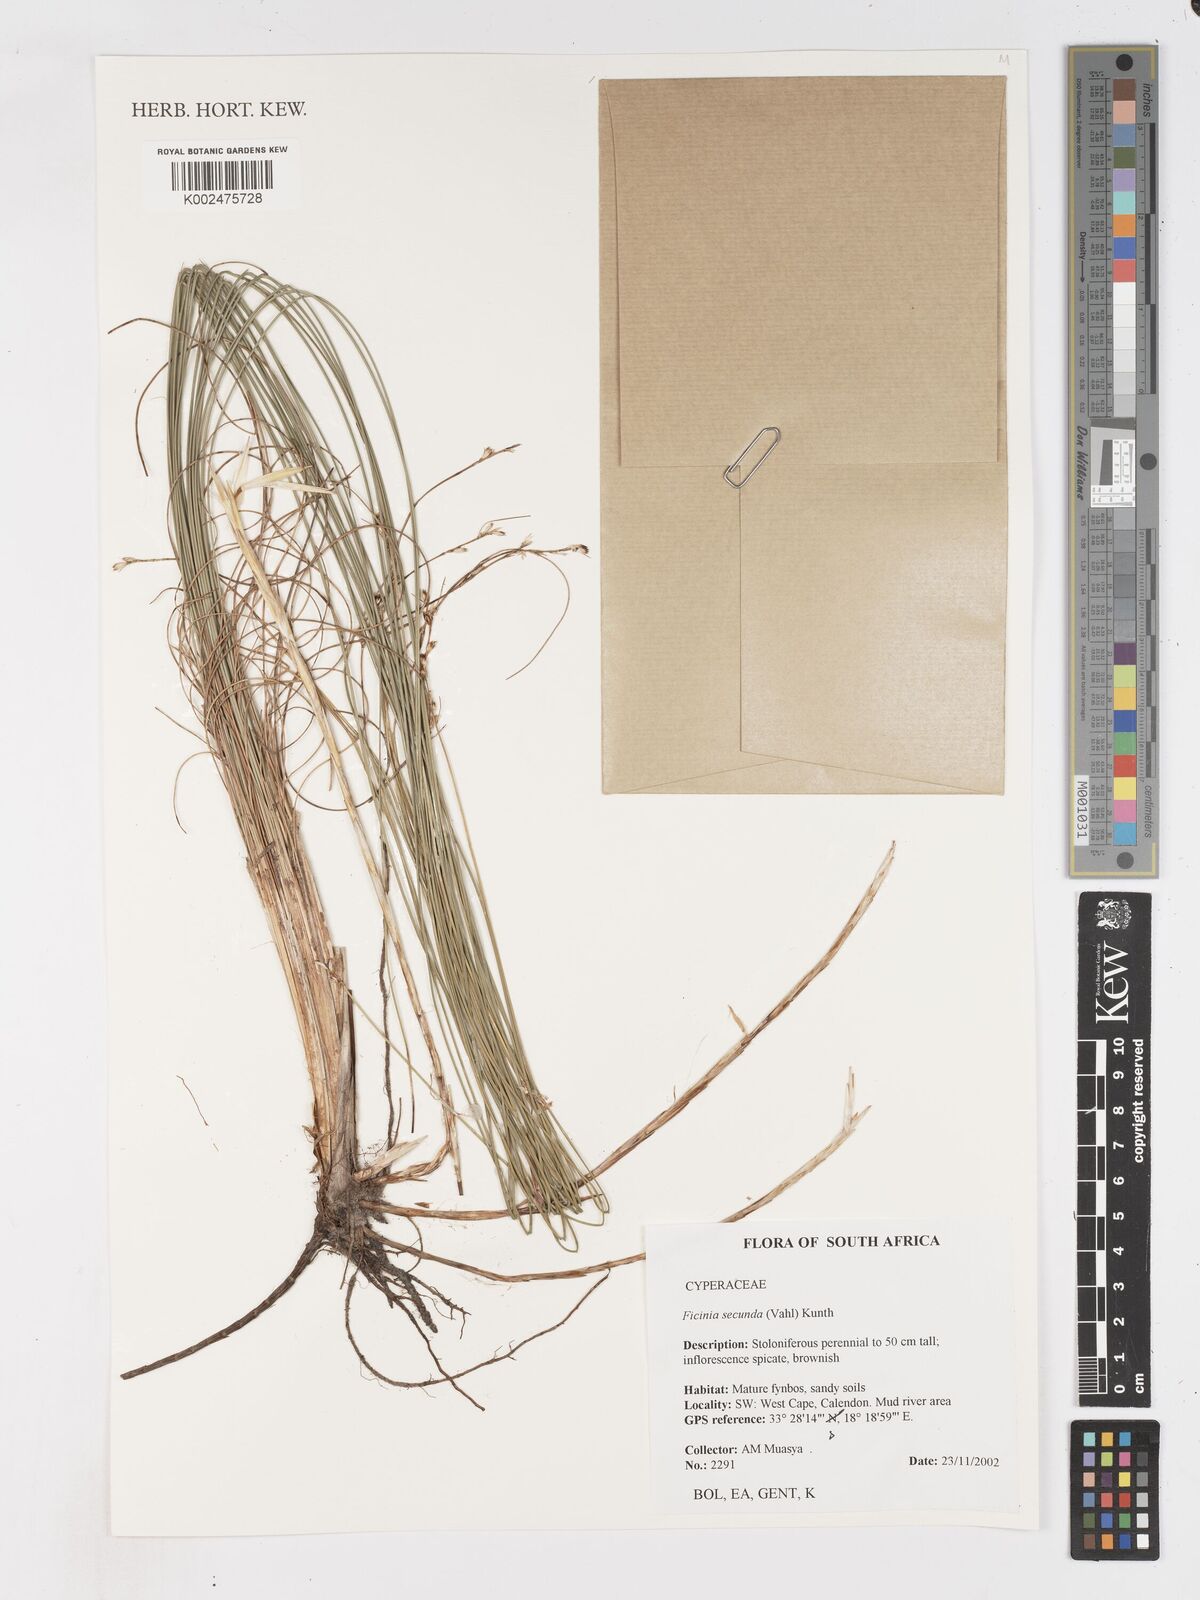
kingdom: Plantae
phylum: Tracheophyta
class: Liliopsida
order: Poales
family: Cyperaceae
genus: Ficinia
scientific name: Ficinia secunda
